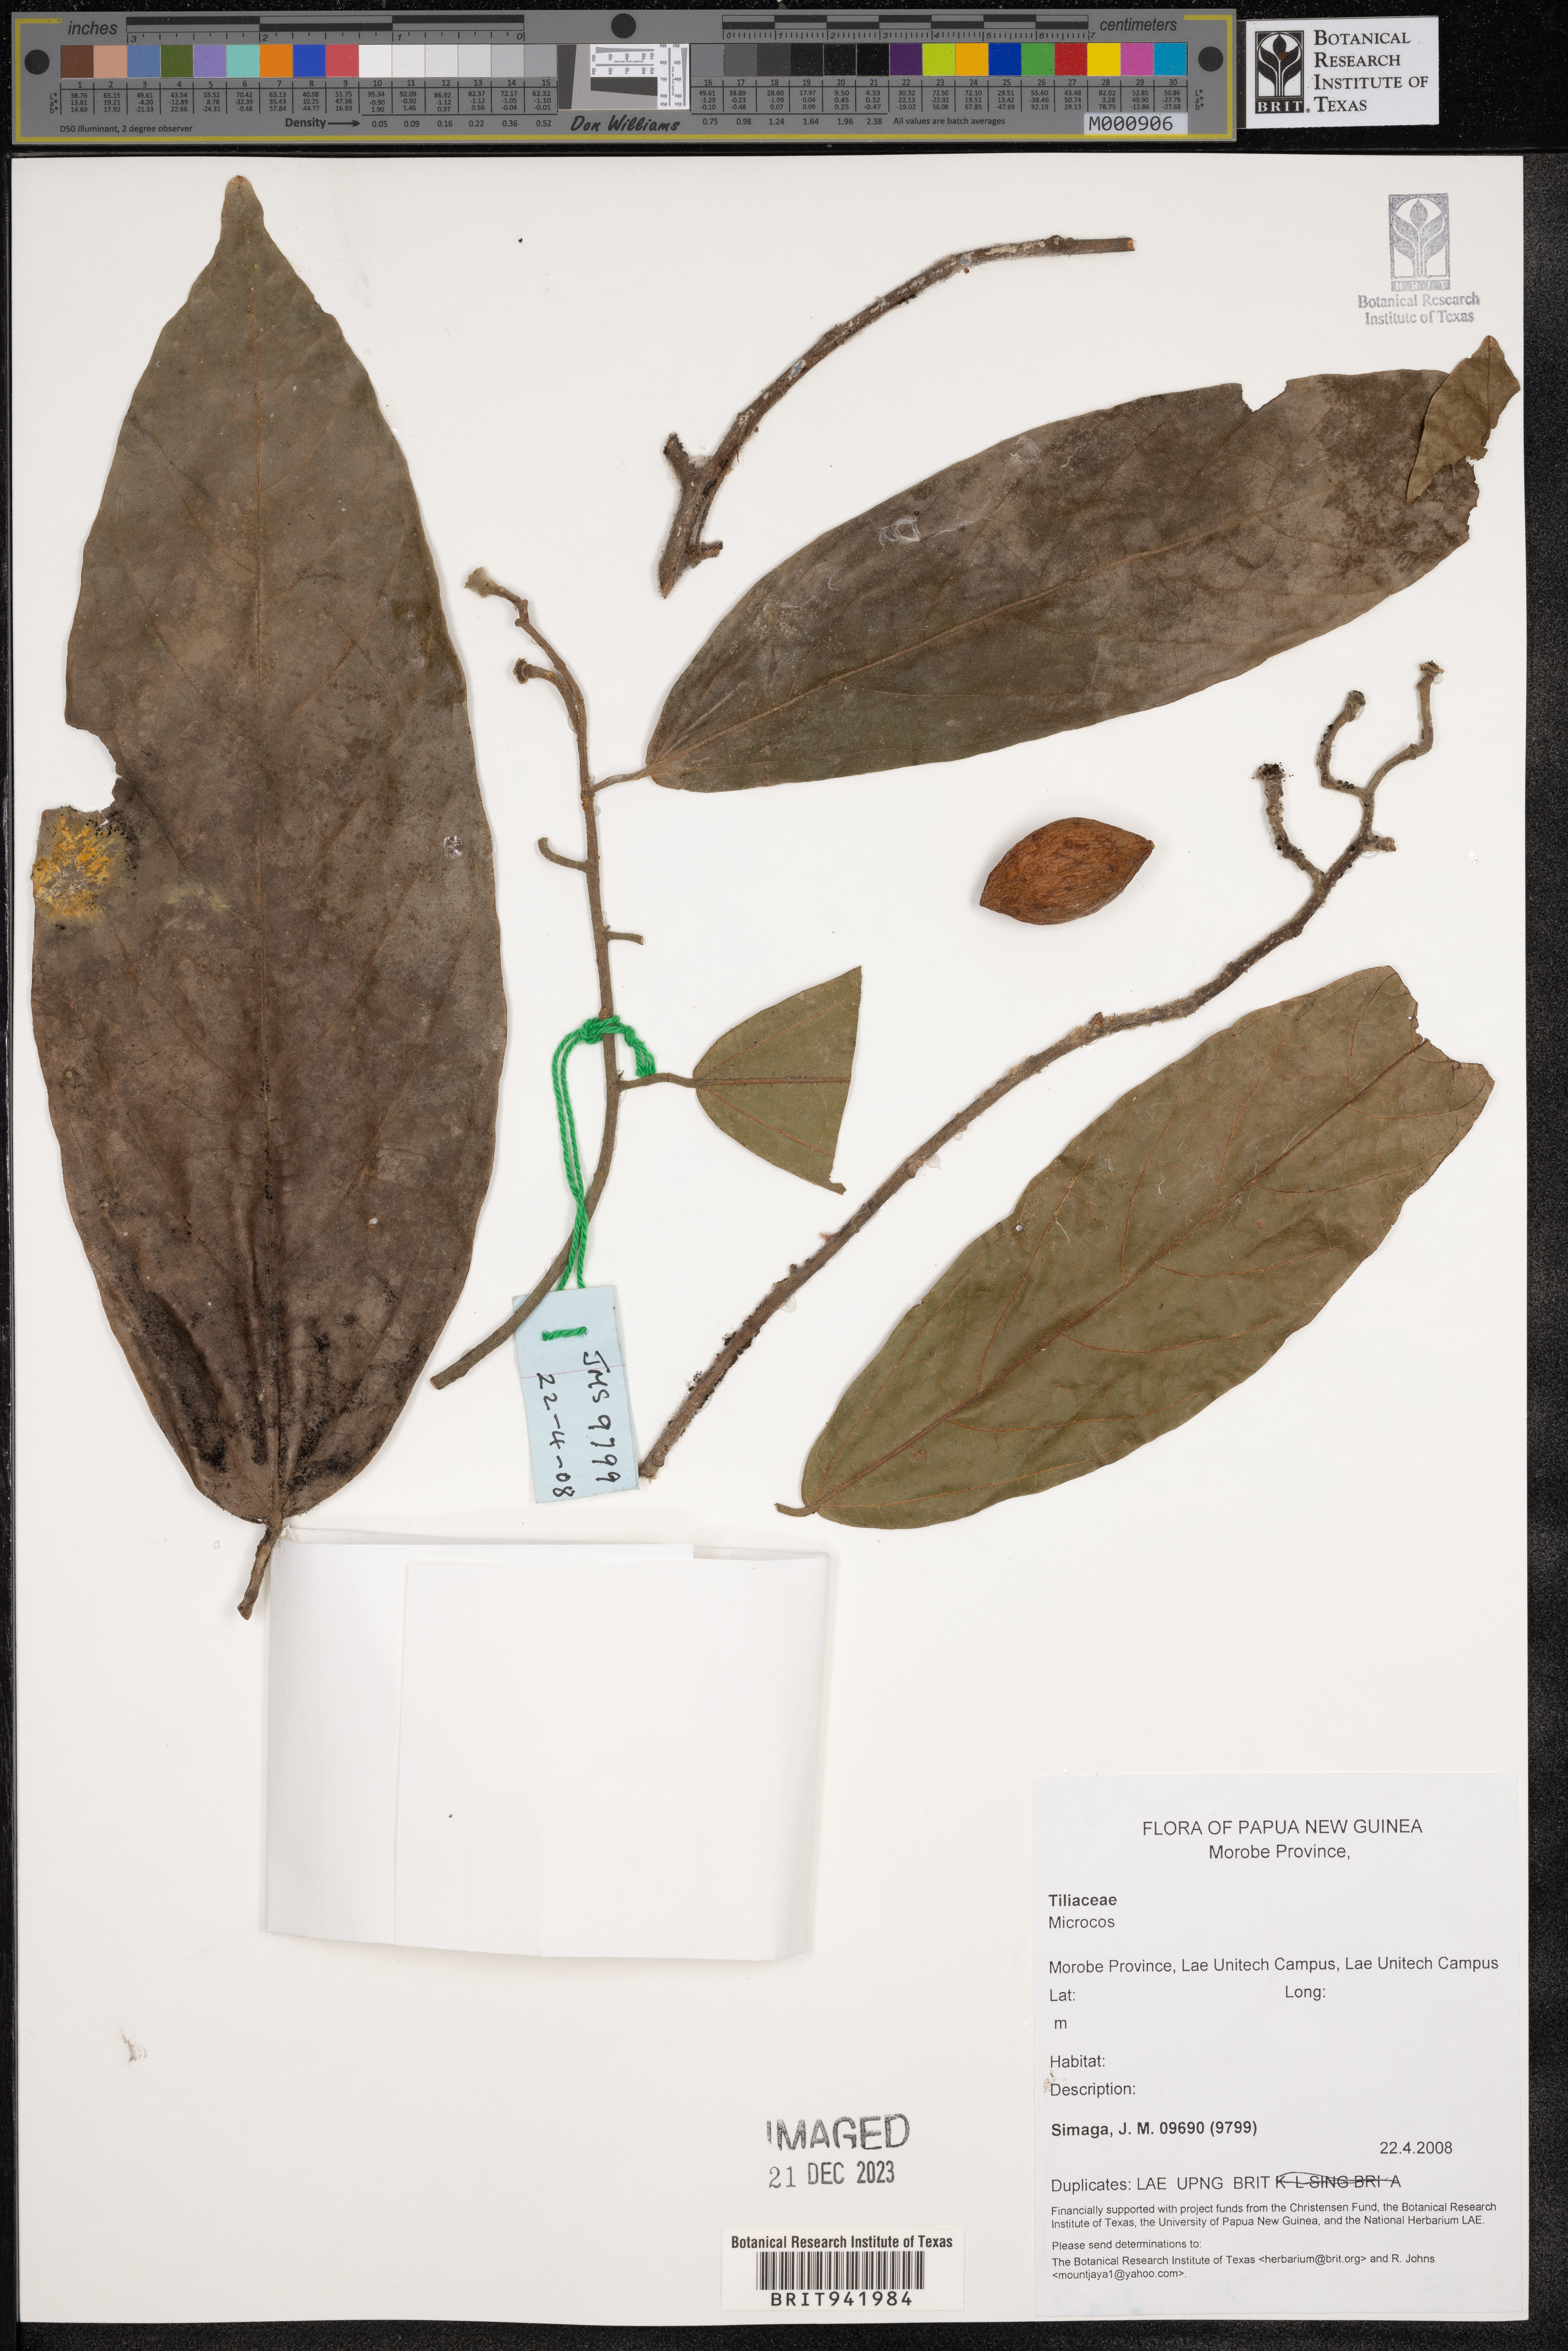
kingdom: Plantae
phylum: Tracheophyta
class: Magnoliopsida
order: Malvales
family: Malvaceae
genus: Microcos
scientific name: Microcos
